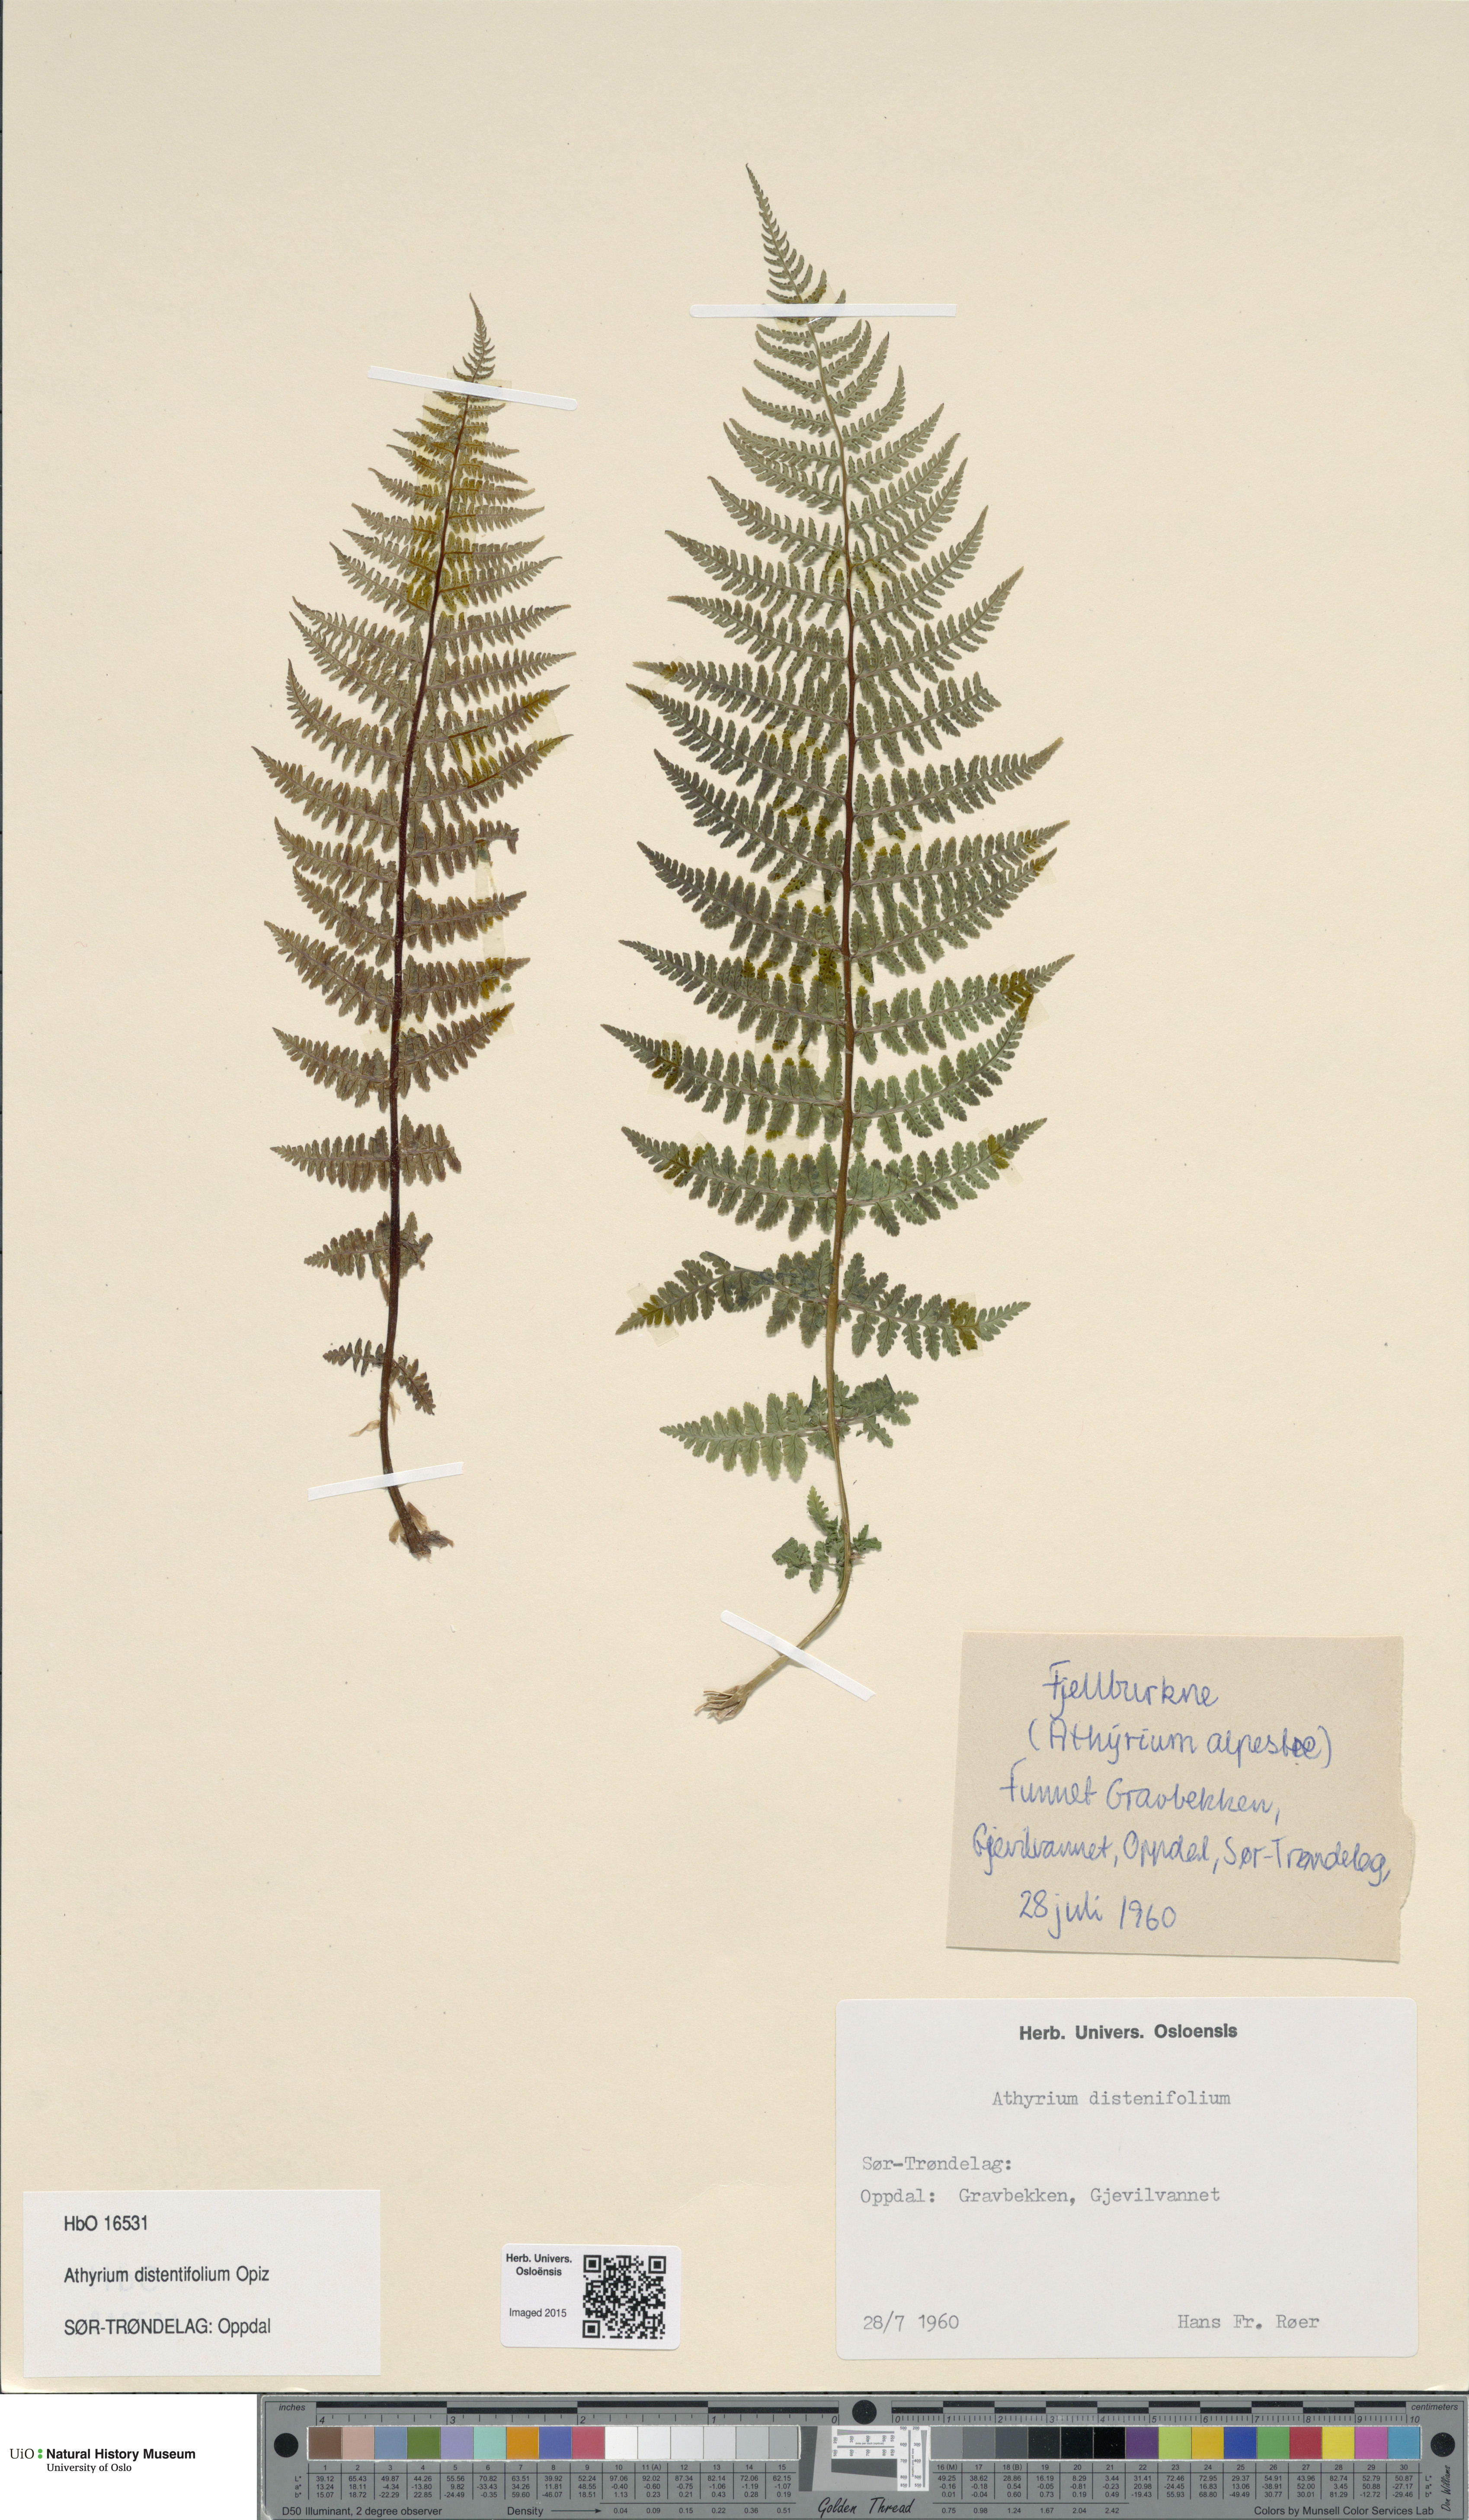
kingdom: Plantae
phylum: Tracheophyta
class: Polypodiopsida
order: Polypodiales
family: Athyriaceae
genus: Pseudathyrium
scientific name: Pseudathyrium alpestre
